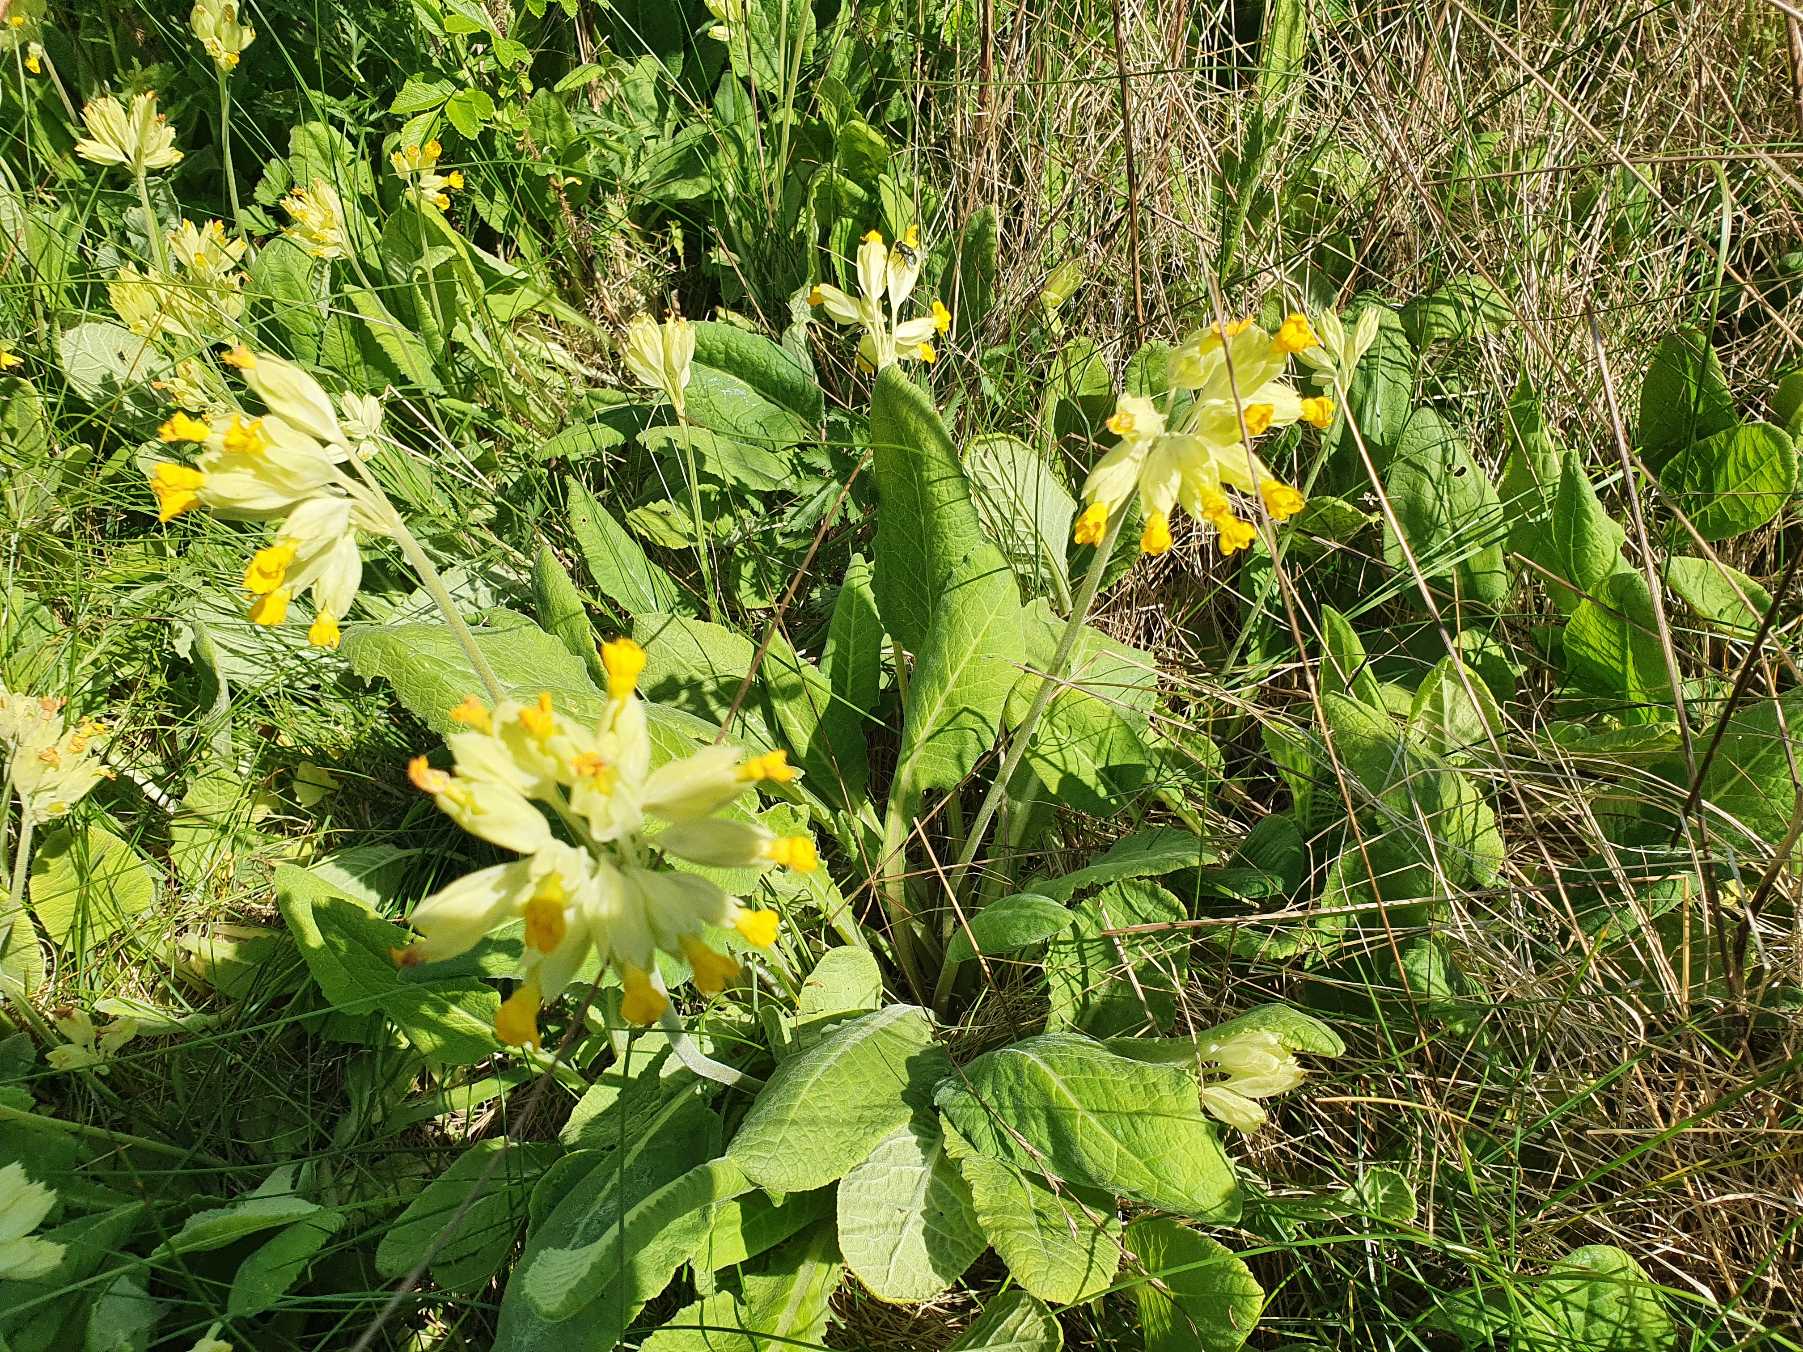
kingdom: Plantae
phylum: Tracheophyta
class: Magnoliopsida
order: Ericales
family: Primulaceae
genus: Primula
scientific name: Primula veris
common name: Hulkravet kodriver
